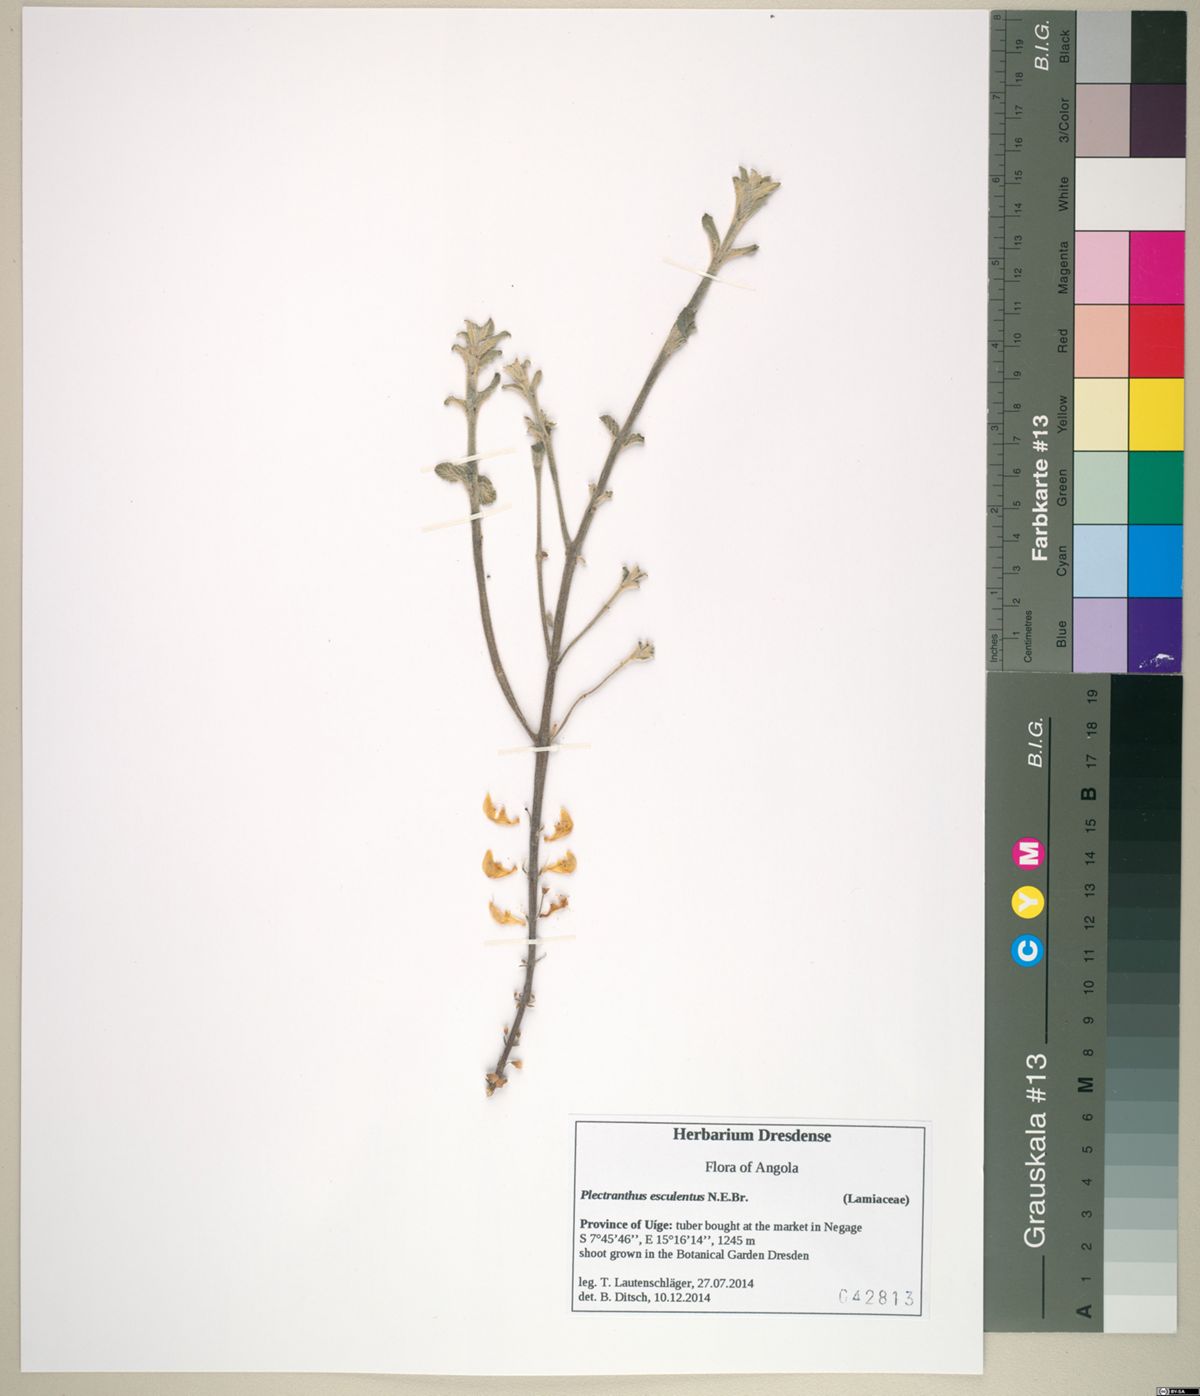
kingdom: Plantae
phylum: Tracheophyta
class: Magnoliopsida
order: Lamiales
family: Lamiaceae
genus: Coleus
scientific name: Coleus esculentus
